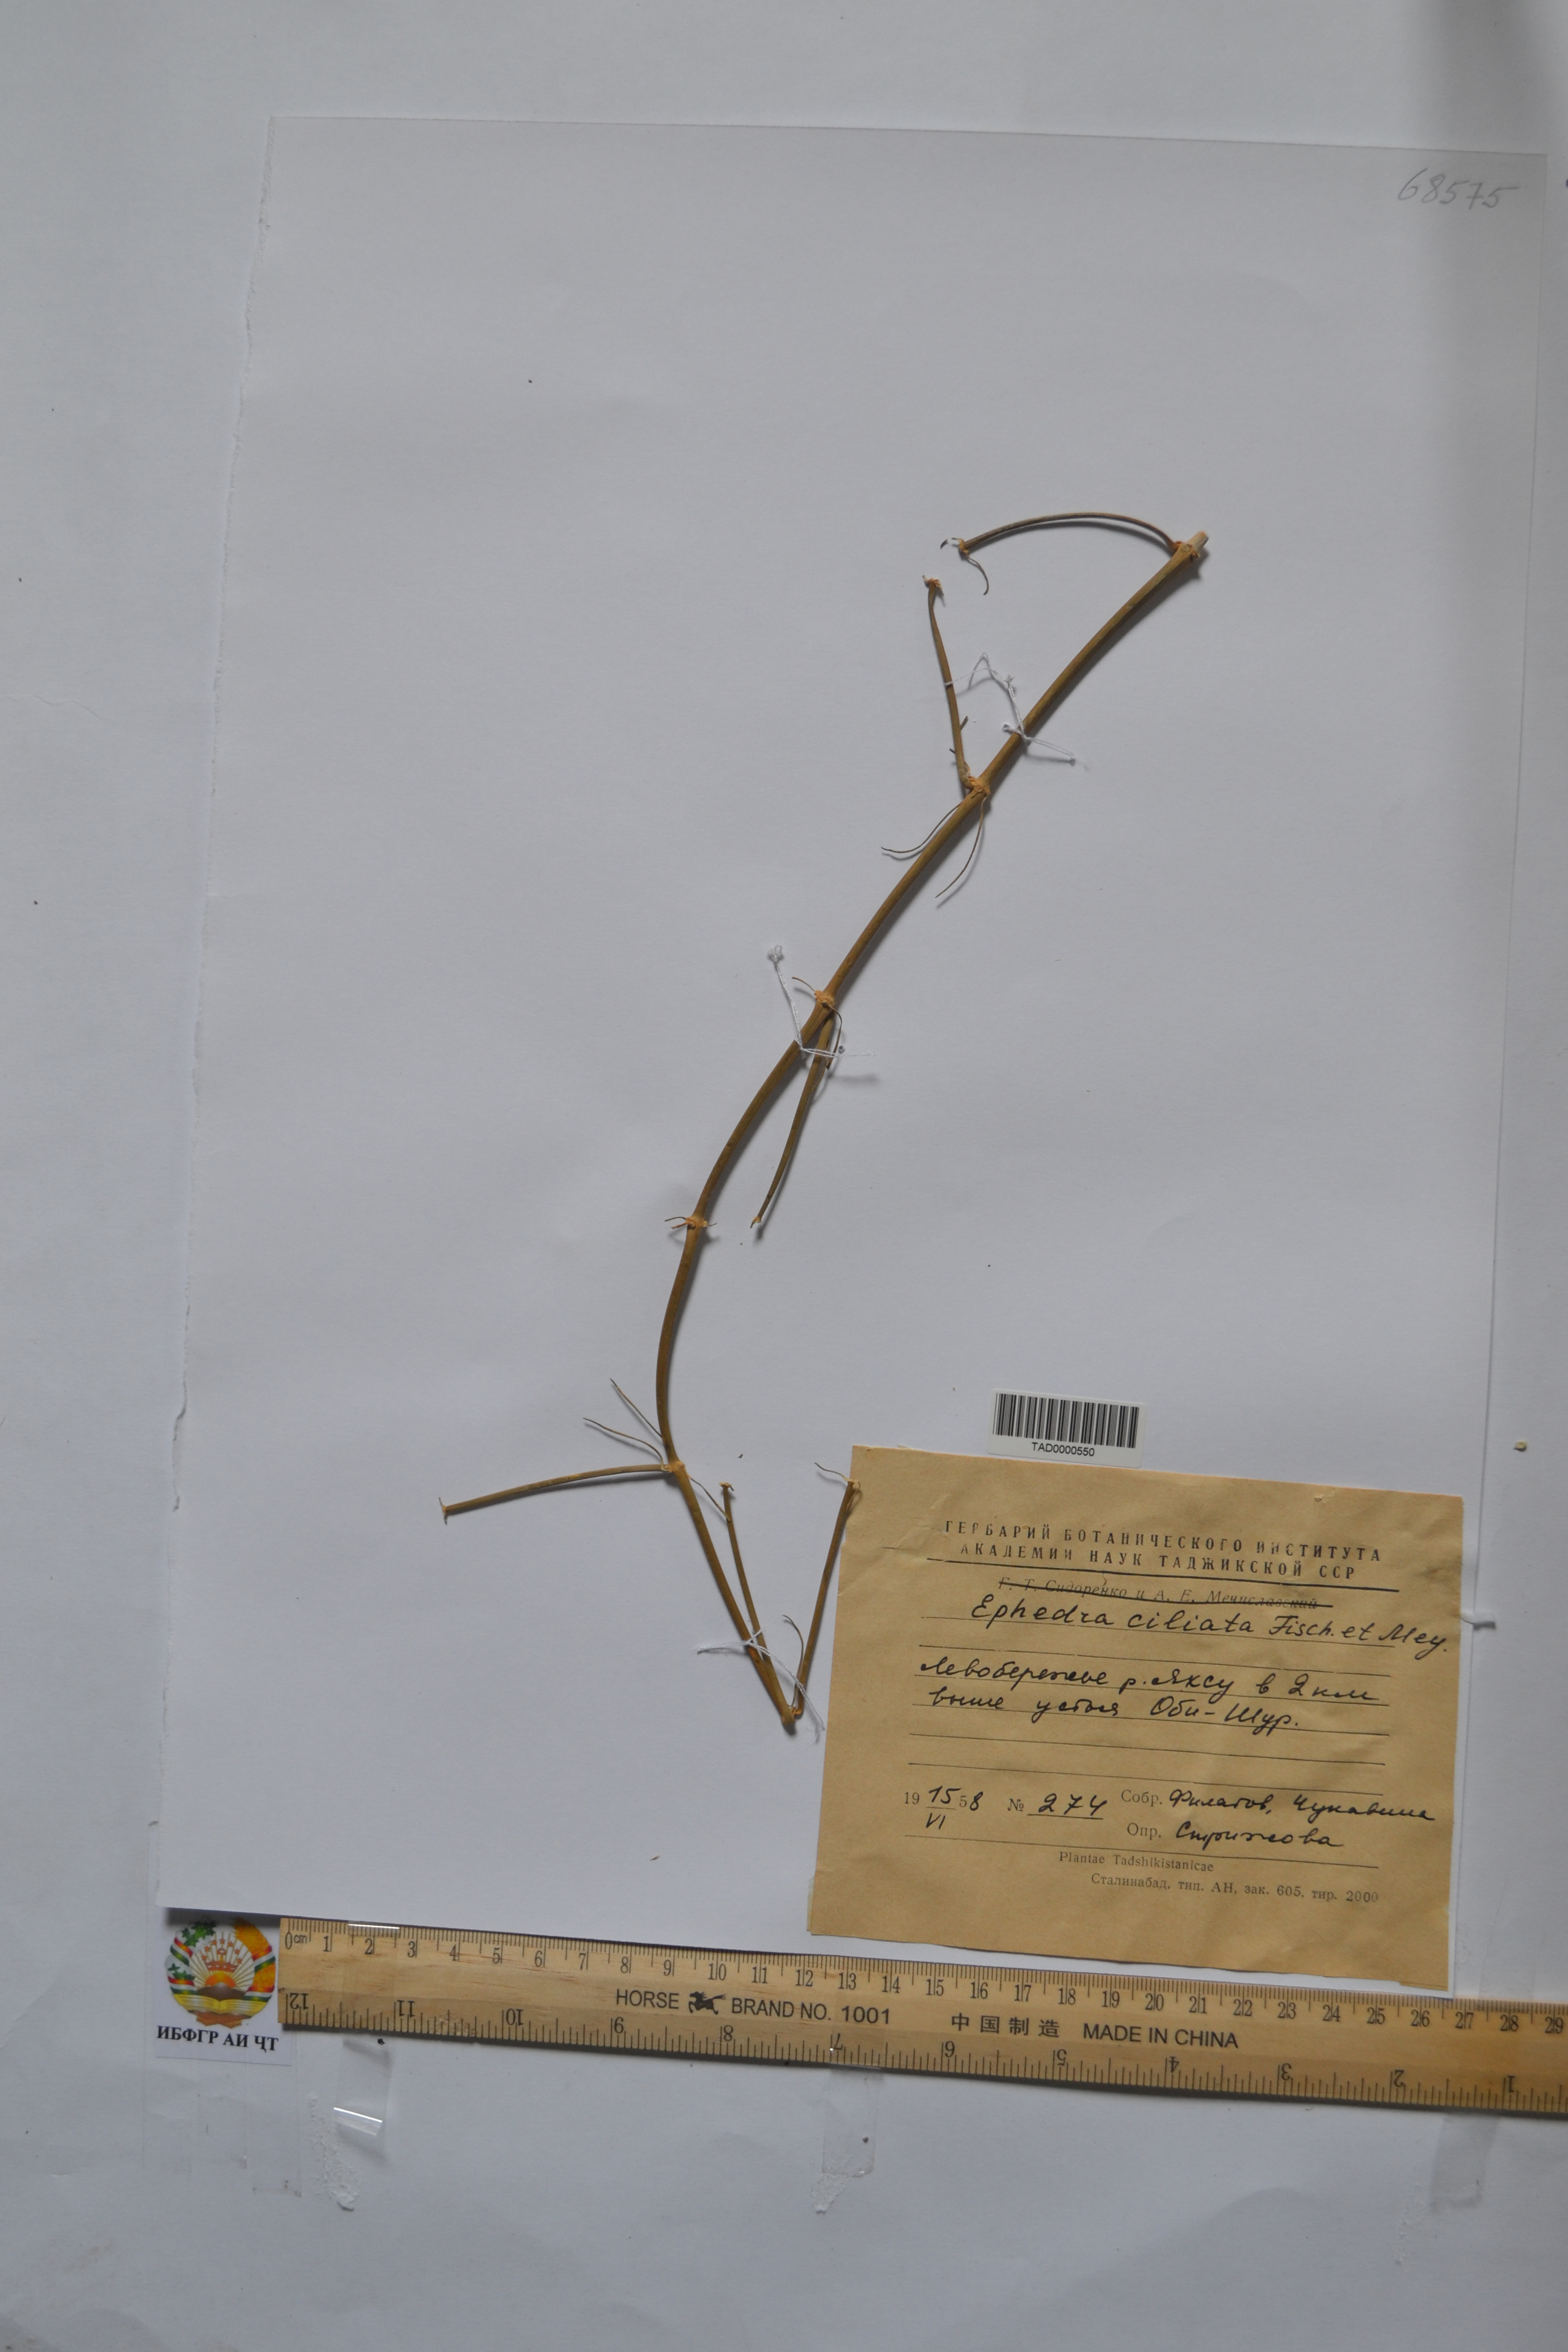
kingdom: Plantae
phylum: Tracheophyta
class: Gnetopsida
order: Ephedrales
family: Ephedraceae
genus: Ephedra
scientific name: Ephedra ciliata
